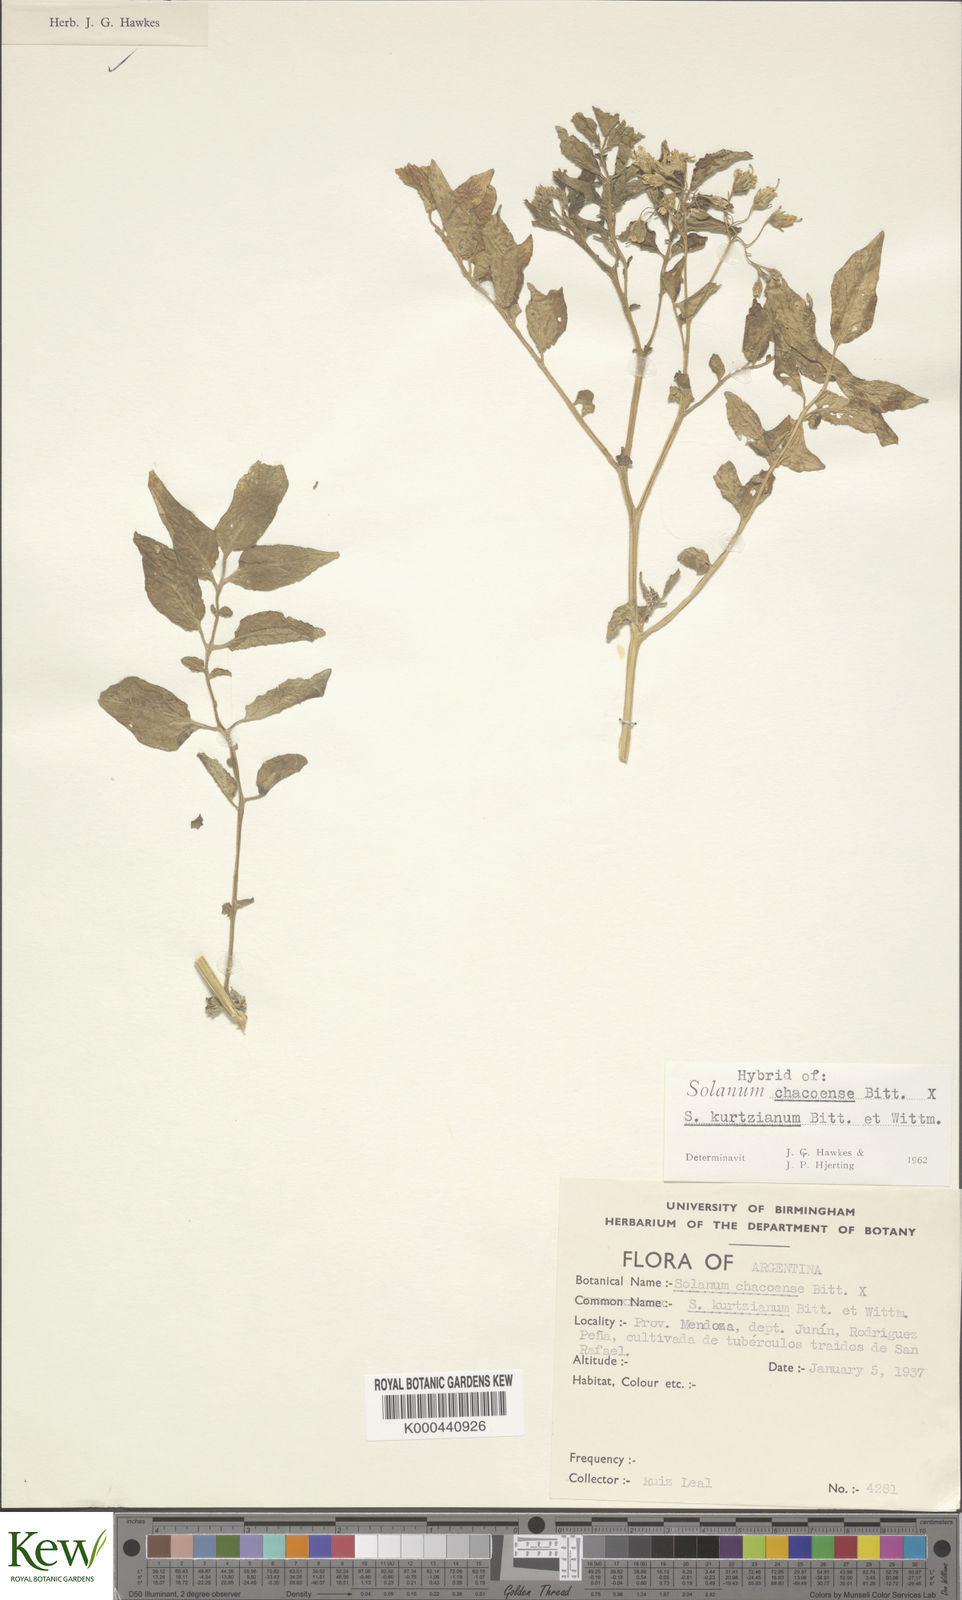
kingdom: Plantae
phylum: Tracheophyta
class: Magnoliopsida
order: Solanales
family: Solanaceae
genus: Solanum
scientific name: Solanum chacoense
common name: Chaco potato
